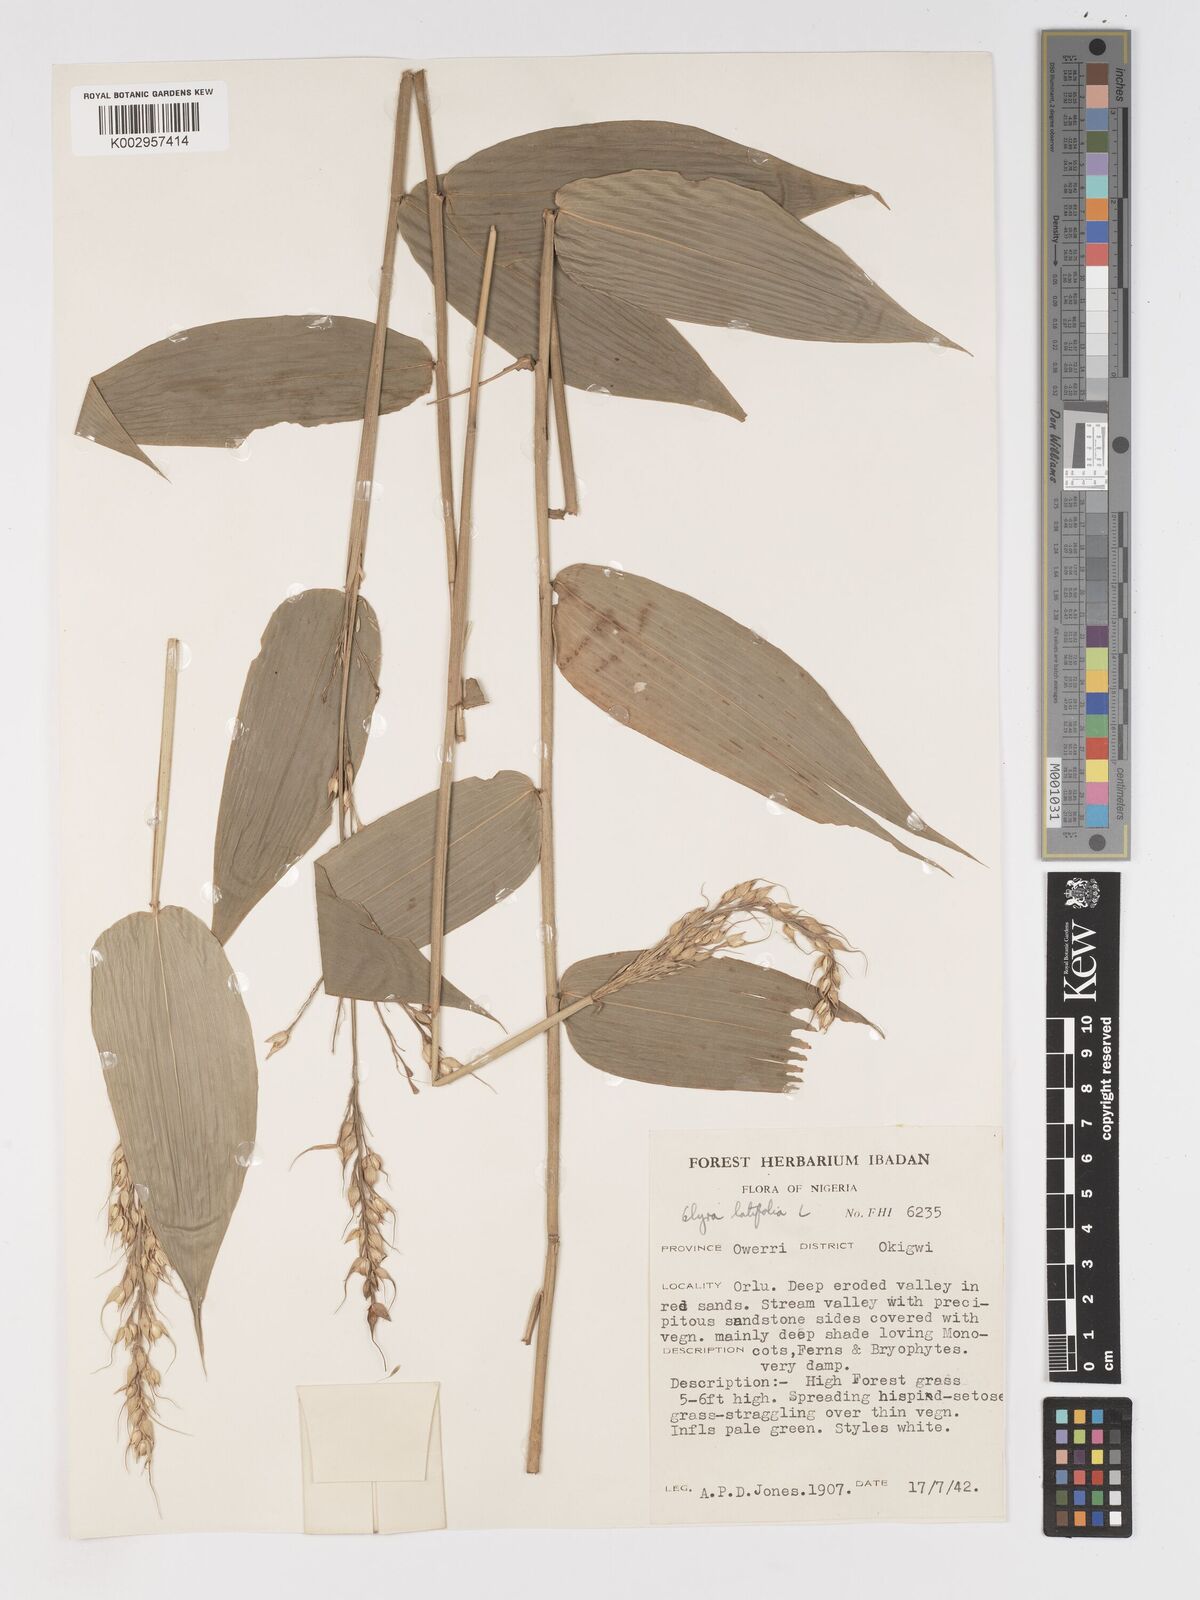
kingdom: Plantae
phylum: Tracheophyta
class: Liliopsida
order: Poales
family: Poaceae
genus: Olyra
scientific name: Olyra latifolia
